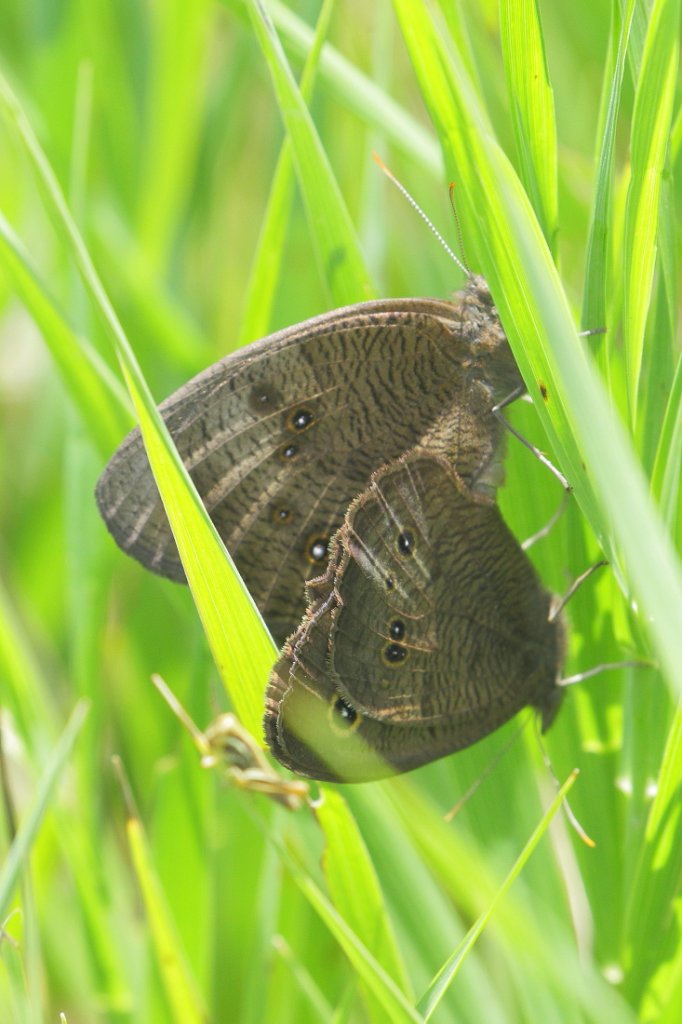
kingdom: Animalia
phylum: Arthropoda
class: Insecta
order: Lepidoptera
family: Nymphalidae
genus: Cercyonis
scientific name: Cercyonis pegala
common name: Common Wood-Nymph
